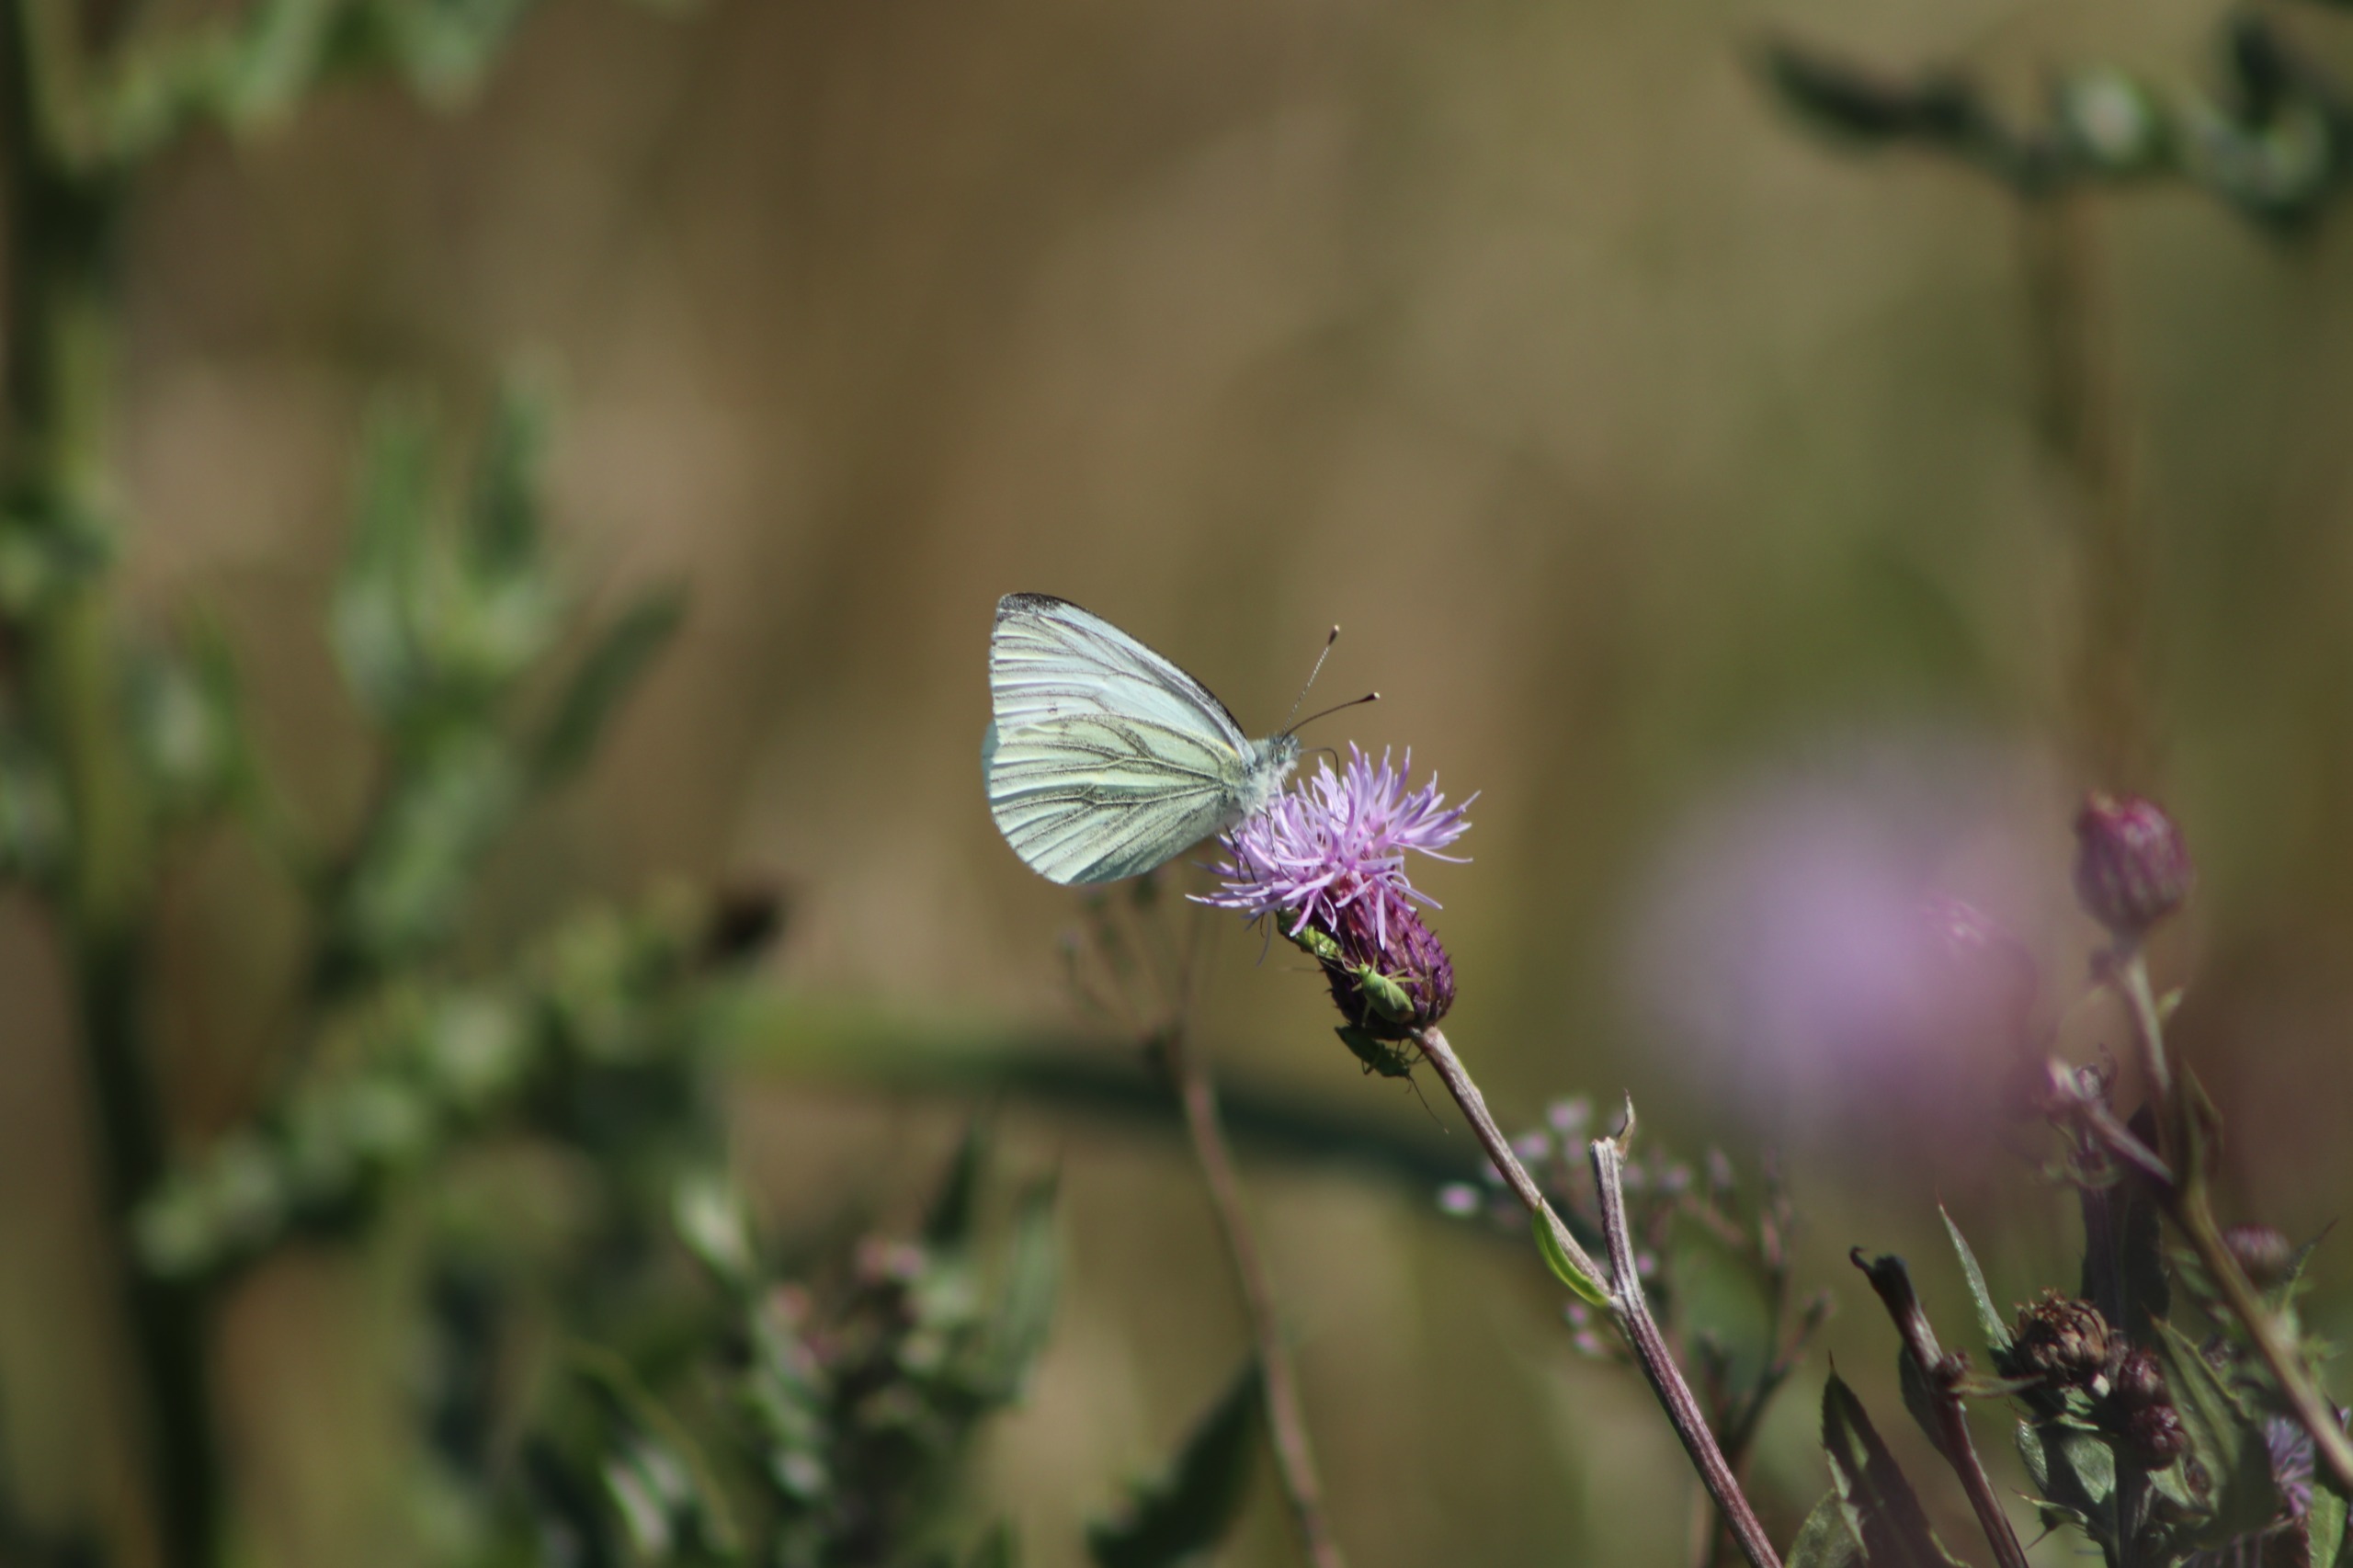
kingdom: Animalia
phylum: Arthropoda
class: Insecta
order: Lepidoptera
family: Pieridae
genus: Pieris
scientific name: Pieris napi
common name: Grønåret kålsommerfugl
